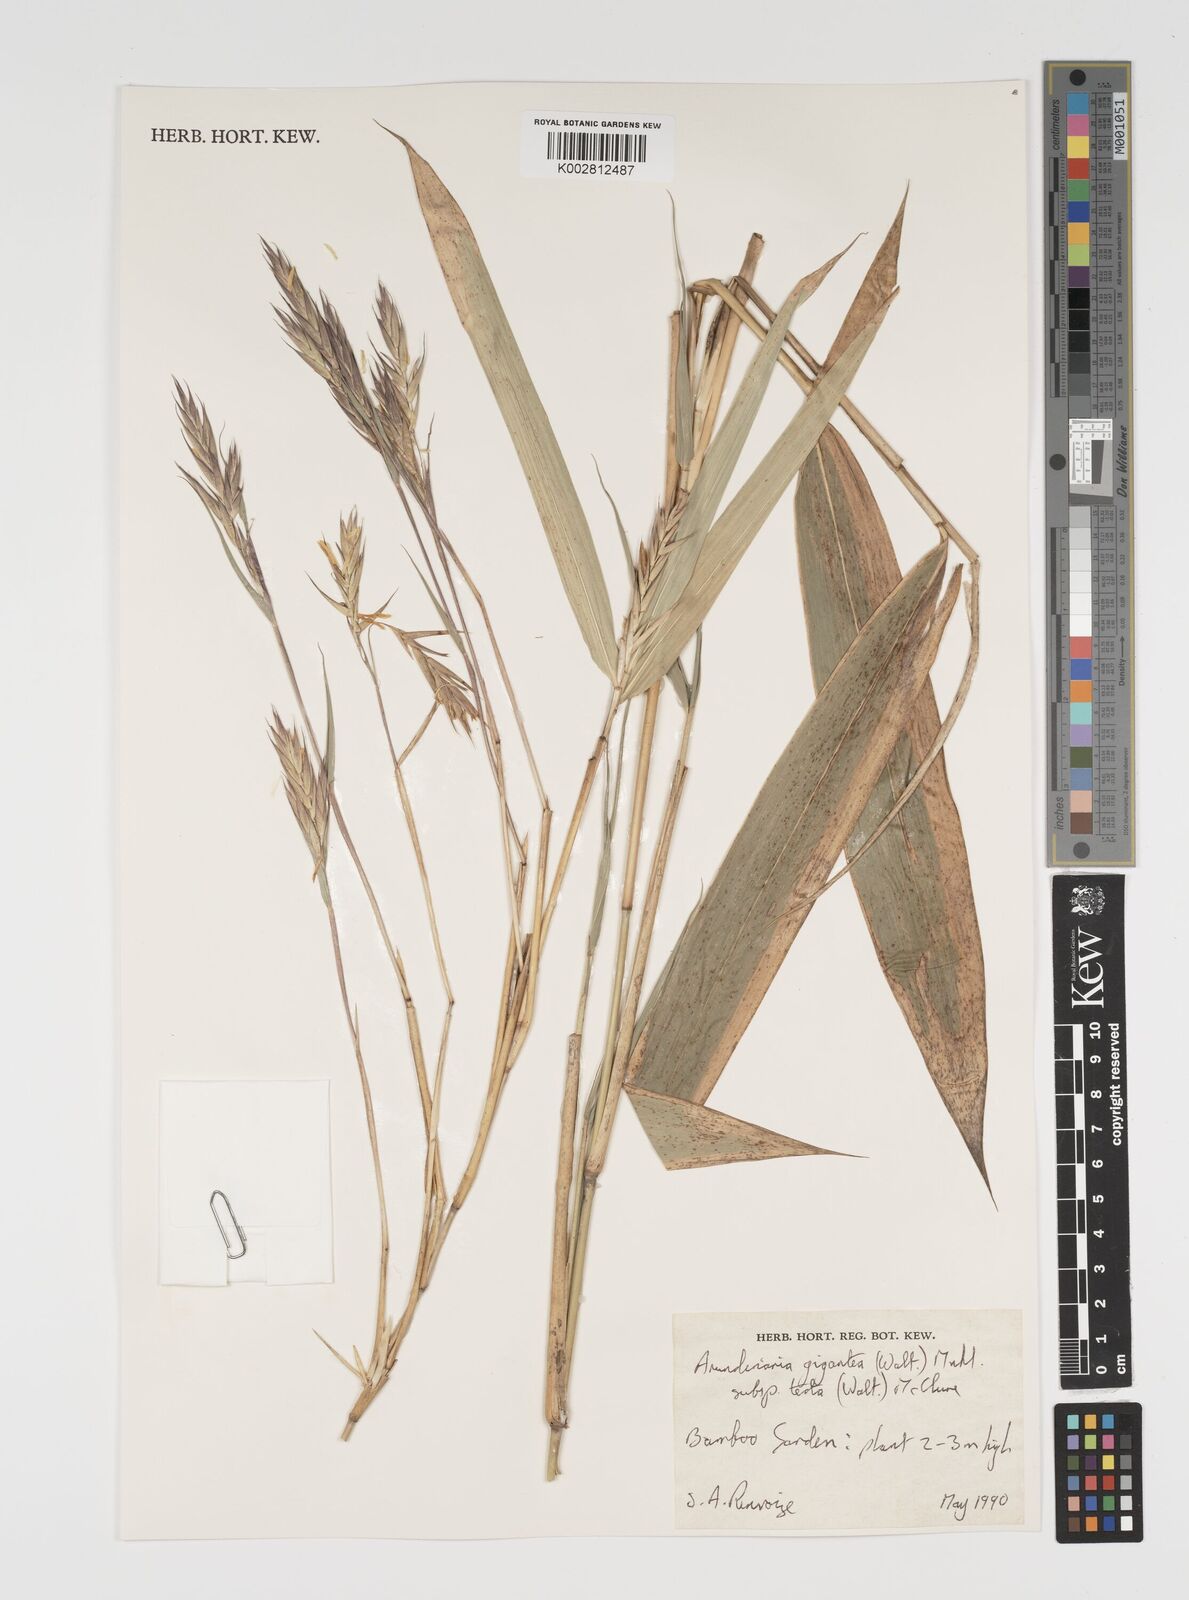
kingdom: Plantae
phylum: Tracheophyta
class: Liliopsida
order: Poales
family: Poaceae
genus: Pseudosasa
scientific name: Pseudosasa amabilis
